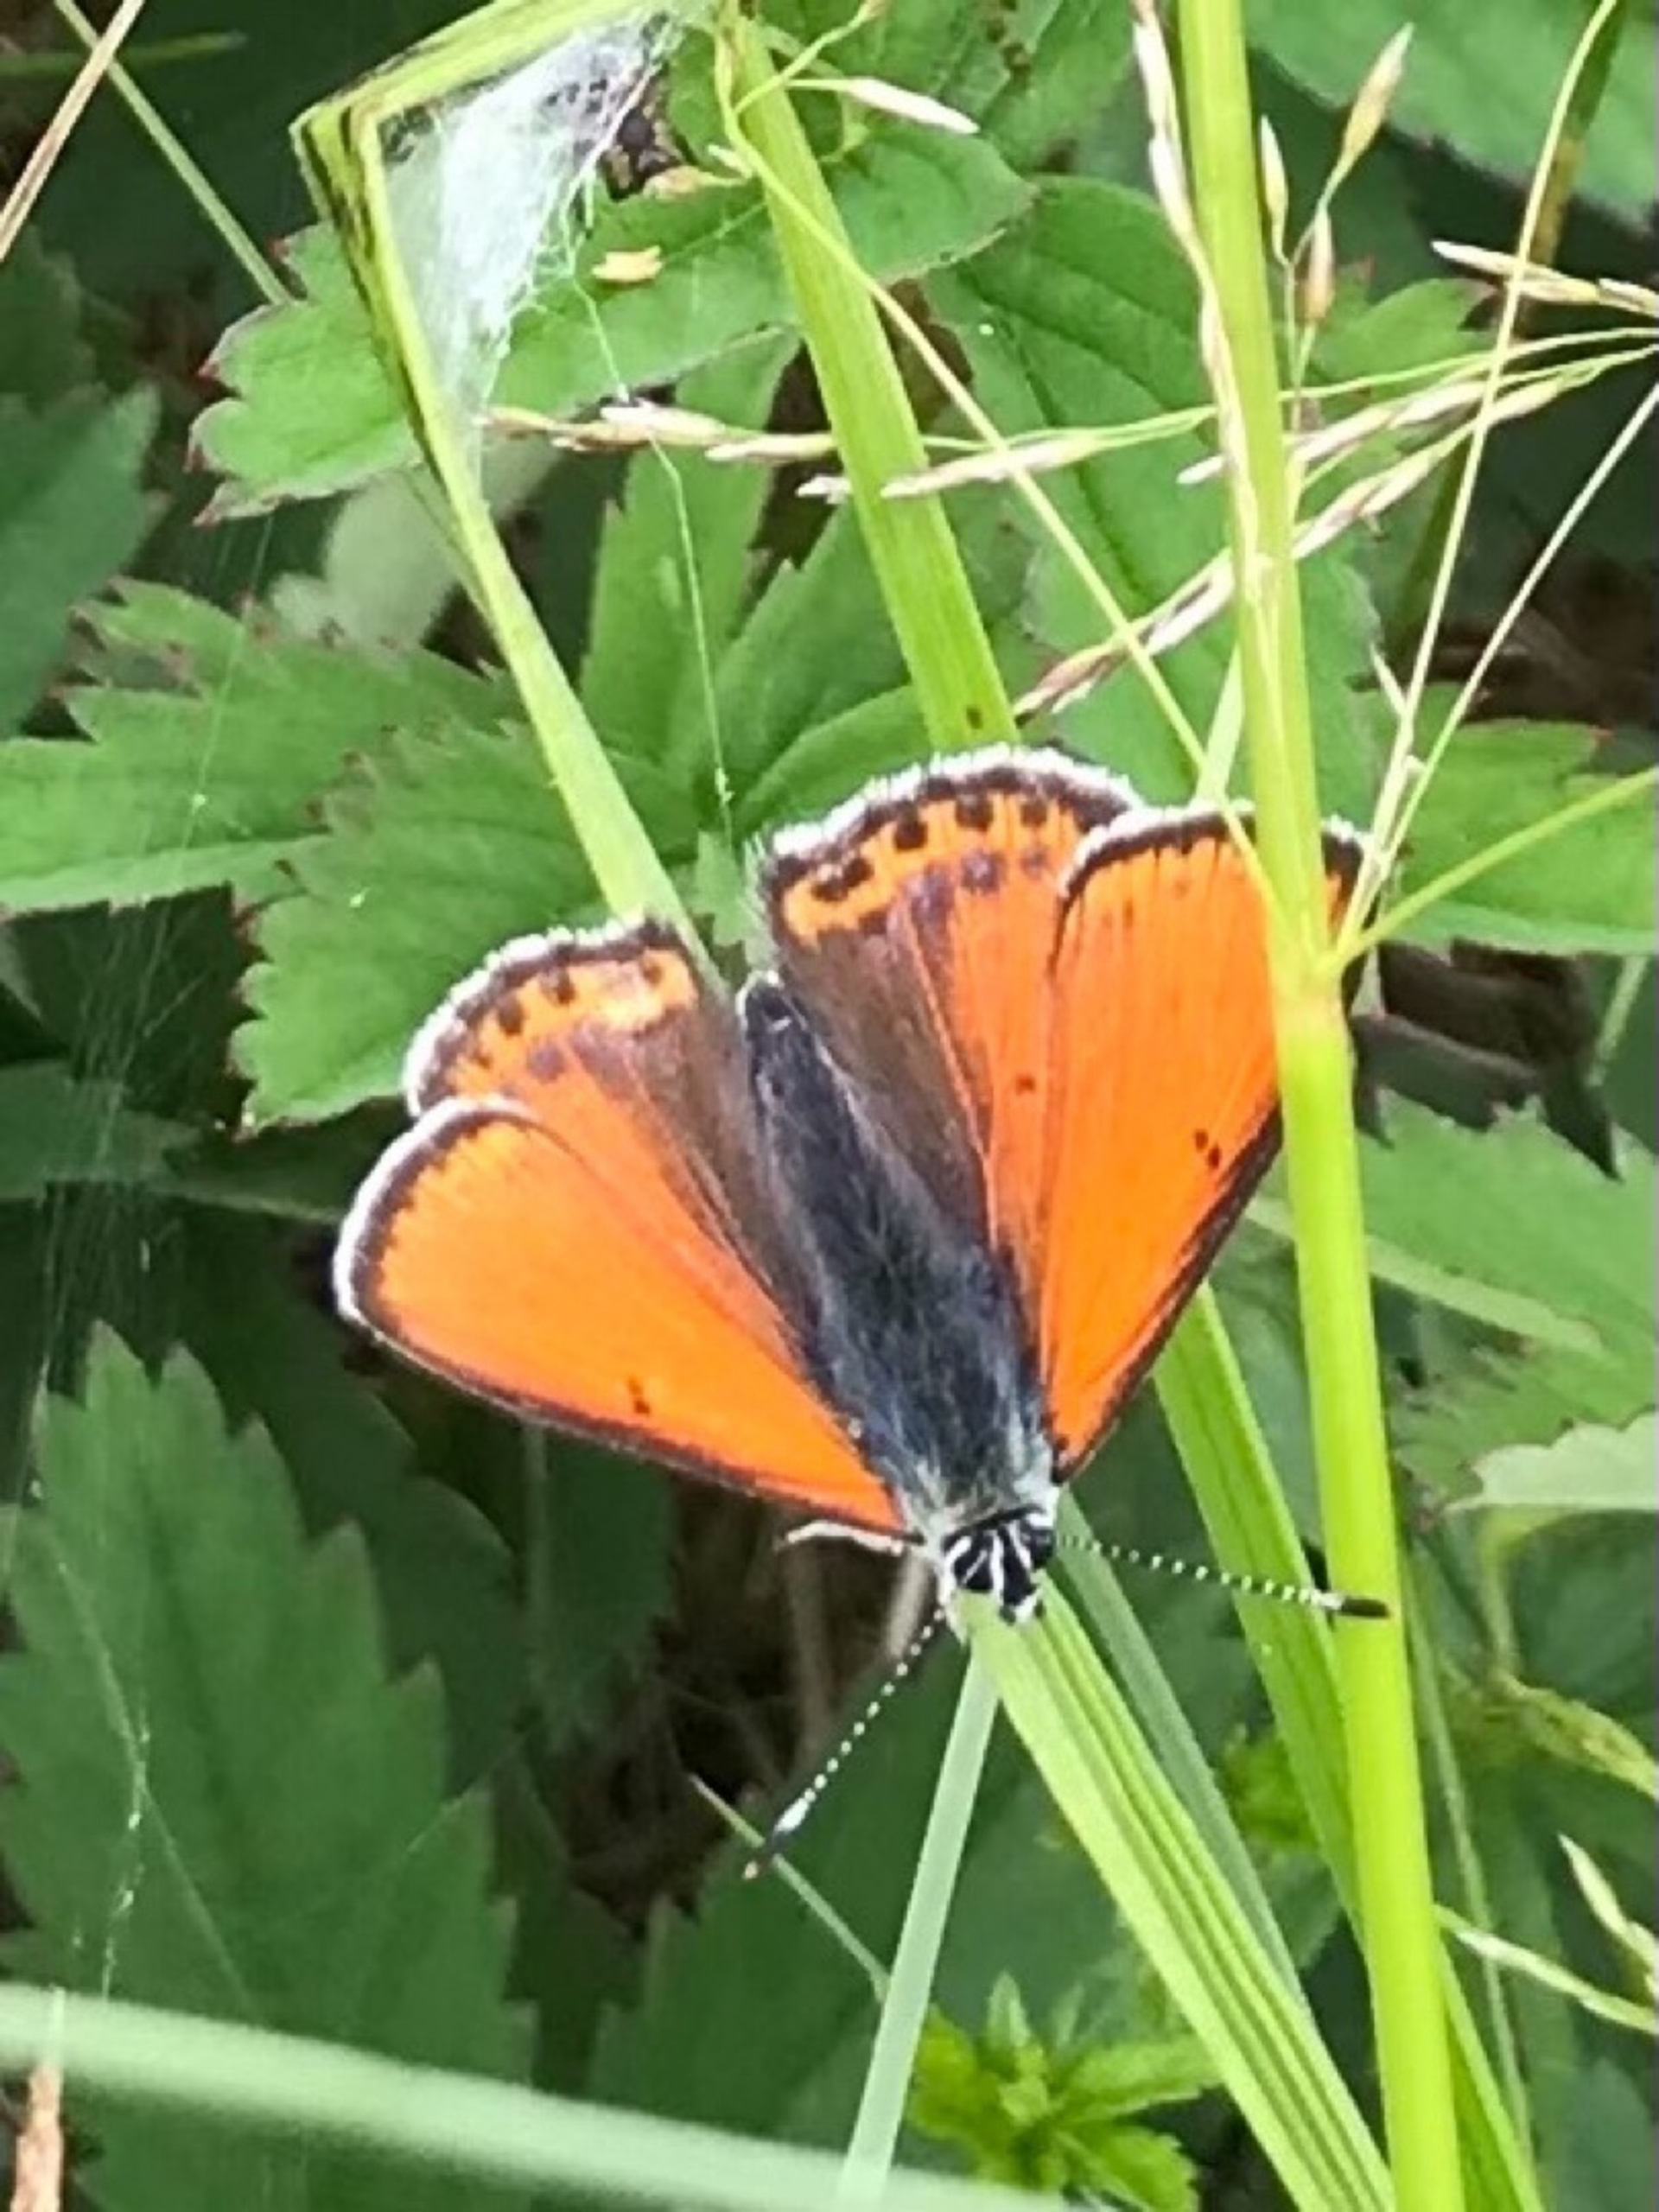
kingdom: Animalia
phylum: Arthropoda
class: Insecta
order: Lepidoptera
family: Lycaenidae
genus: Palaeochrysophanus
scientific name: Palaeochrysophanus hippothoe
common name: Violetrandet ildfugl
